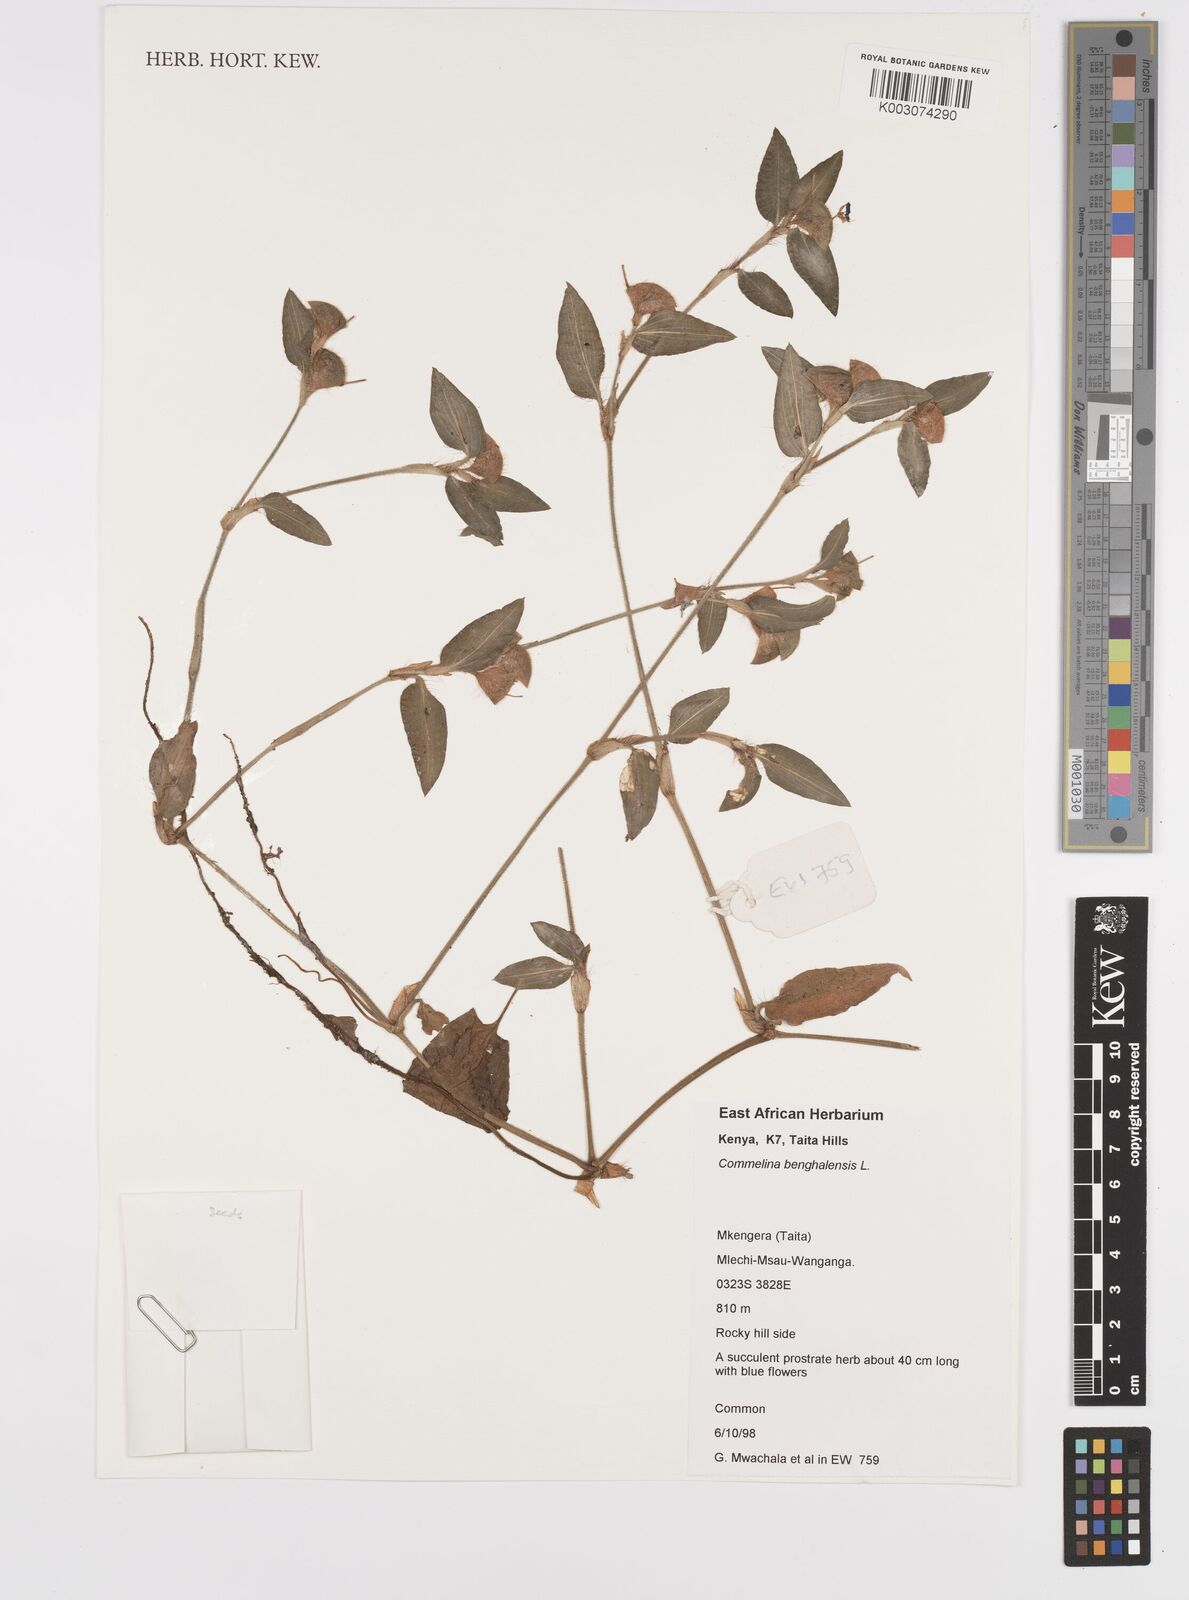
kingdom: Plantae
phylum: Tracheophyta
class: Liliopsida
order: Commelinales
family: Commelinaceae
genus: Commelina
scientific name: Commelina benghalensis
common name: Jio
